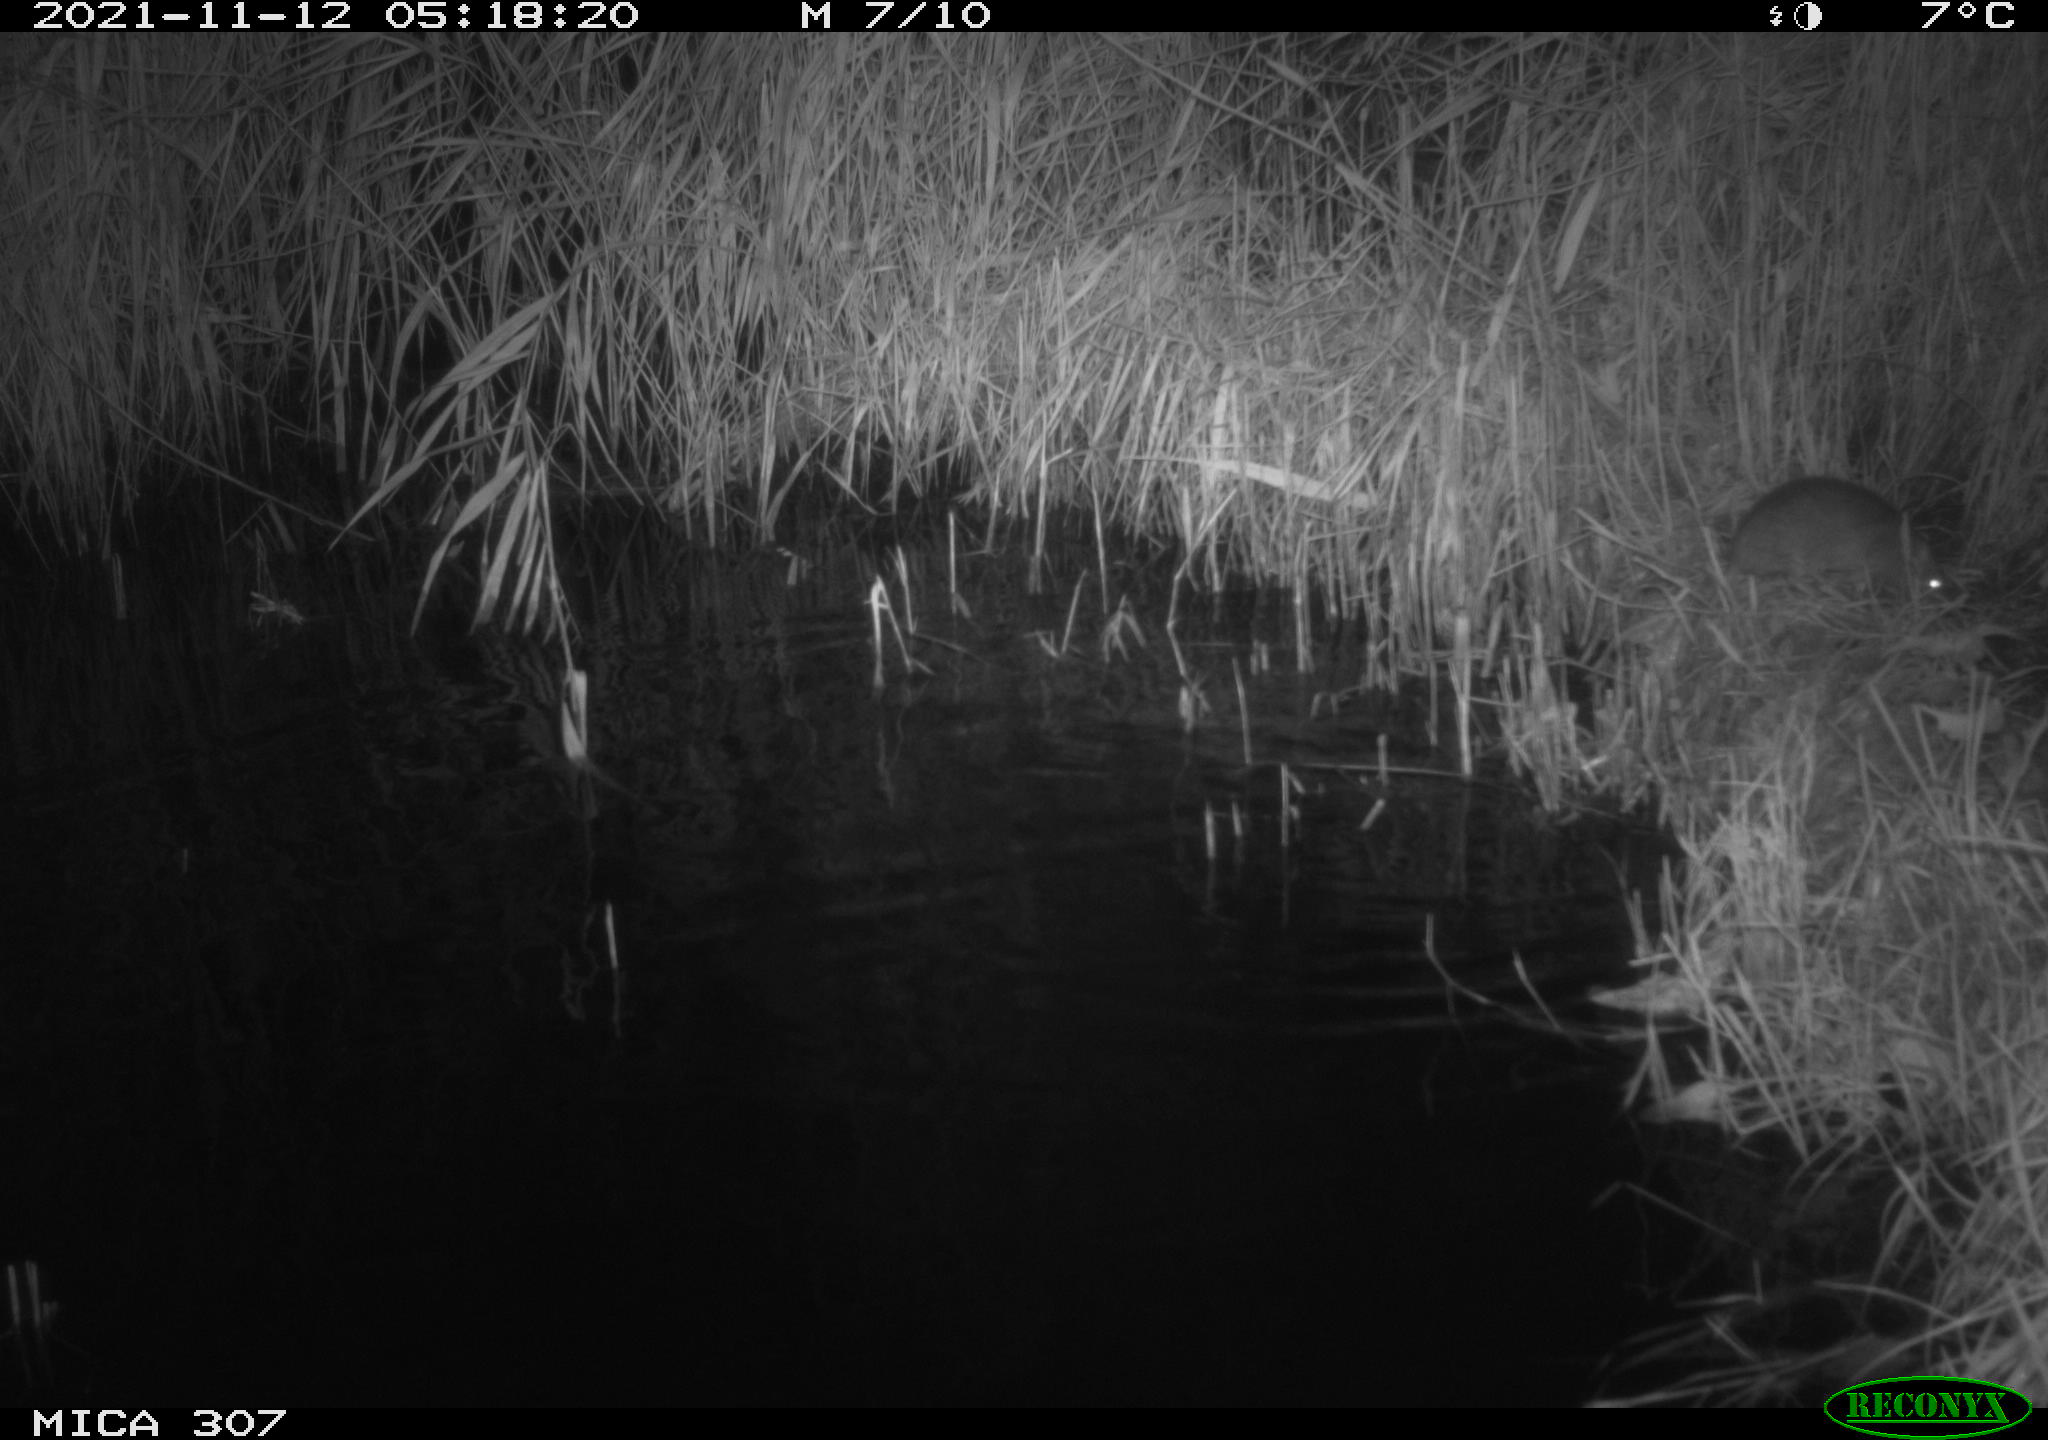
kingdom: Animalia
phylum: Chordata
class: Mammalia
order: Rodentia
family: Muridae
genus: Rattus
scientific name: Rattus norvegicus
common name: Brown rat
